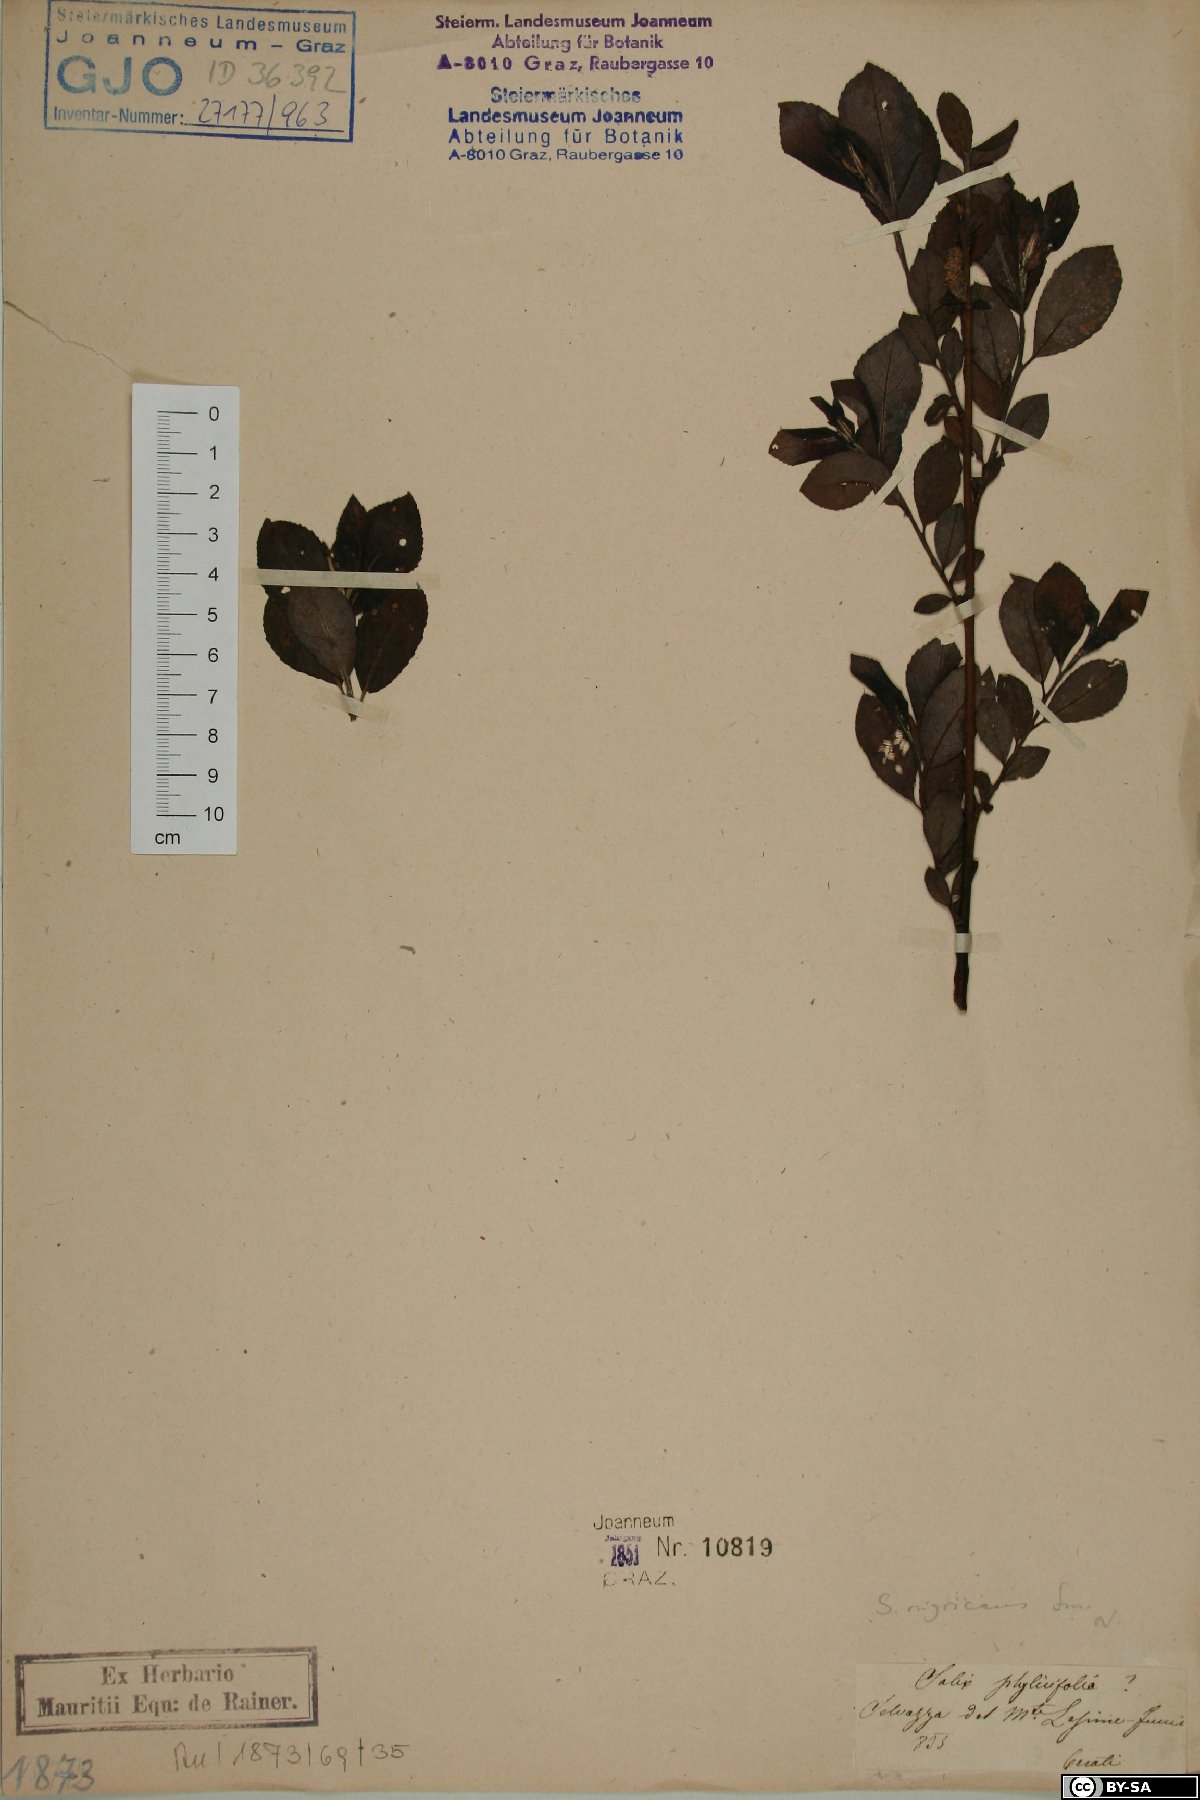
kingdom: Plantae
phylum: Tracheophyta
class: Magnoliopsida
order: Malpighiales
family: Salicaceae
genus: Salix
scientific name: Salix myrsinifolia
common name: Dark-leaved willow
